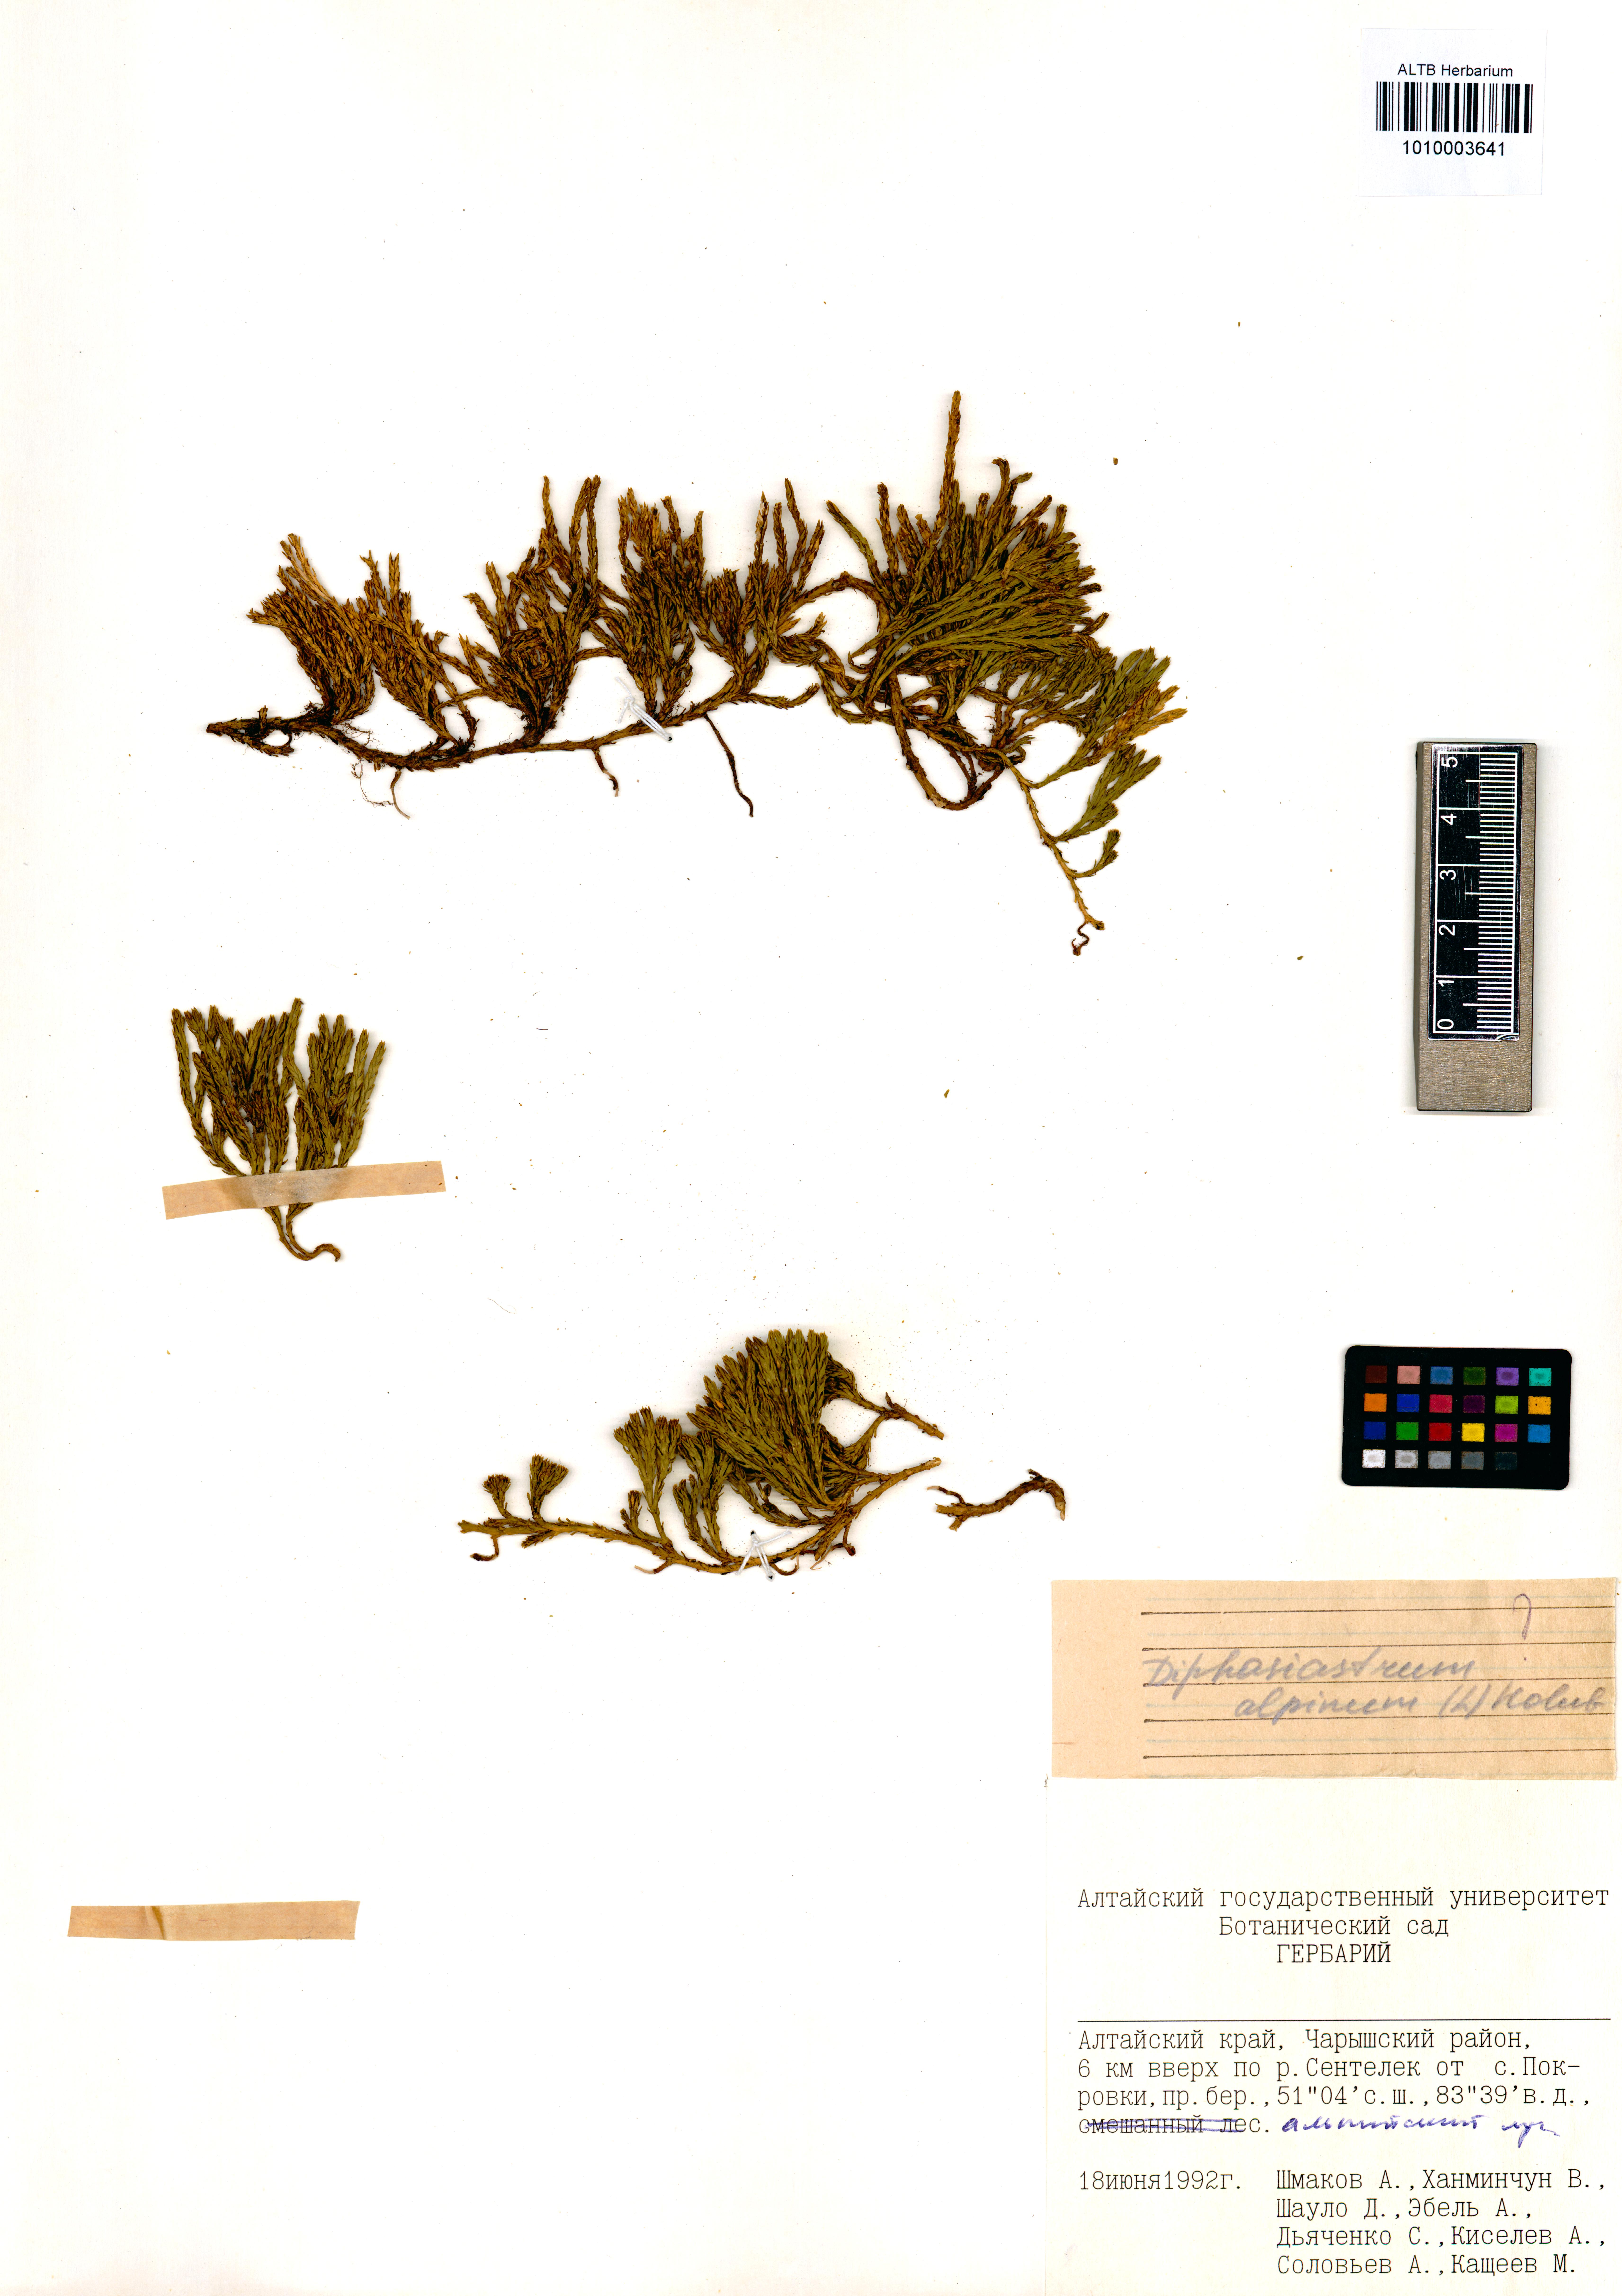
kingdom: Plantae
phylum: Tracheophyta
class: Lycopodiopsida
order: Lycopodiales
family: Lycopodiaceae
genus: Diphasiastrum
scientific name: Diphasiastrum alpinum
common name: Alpine clubmoss
